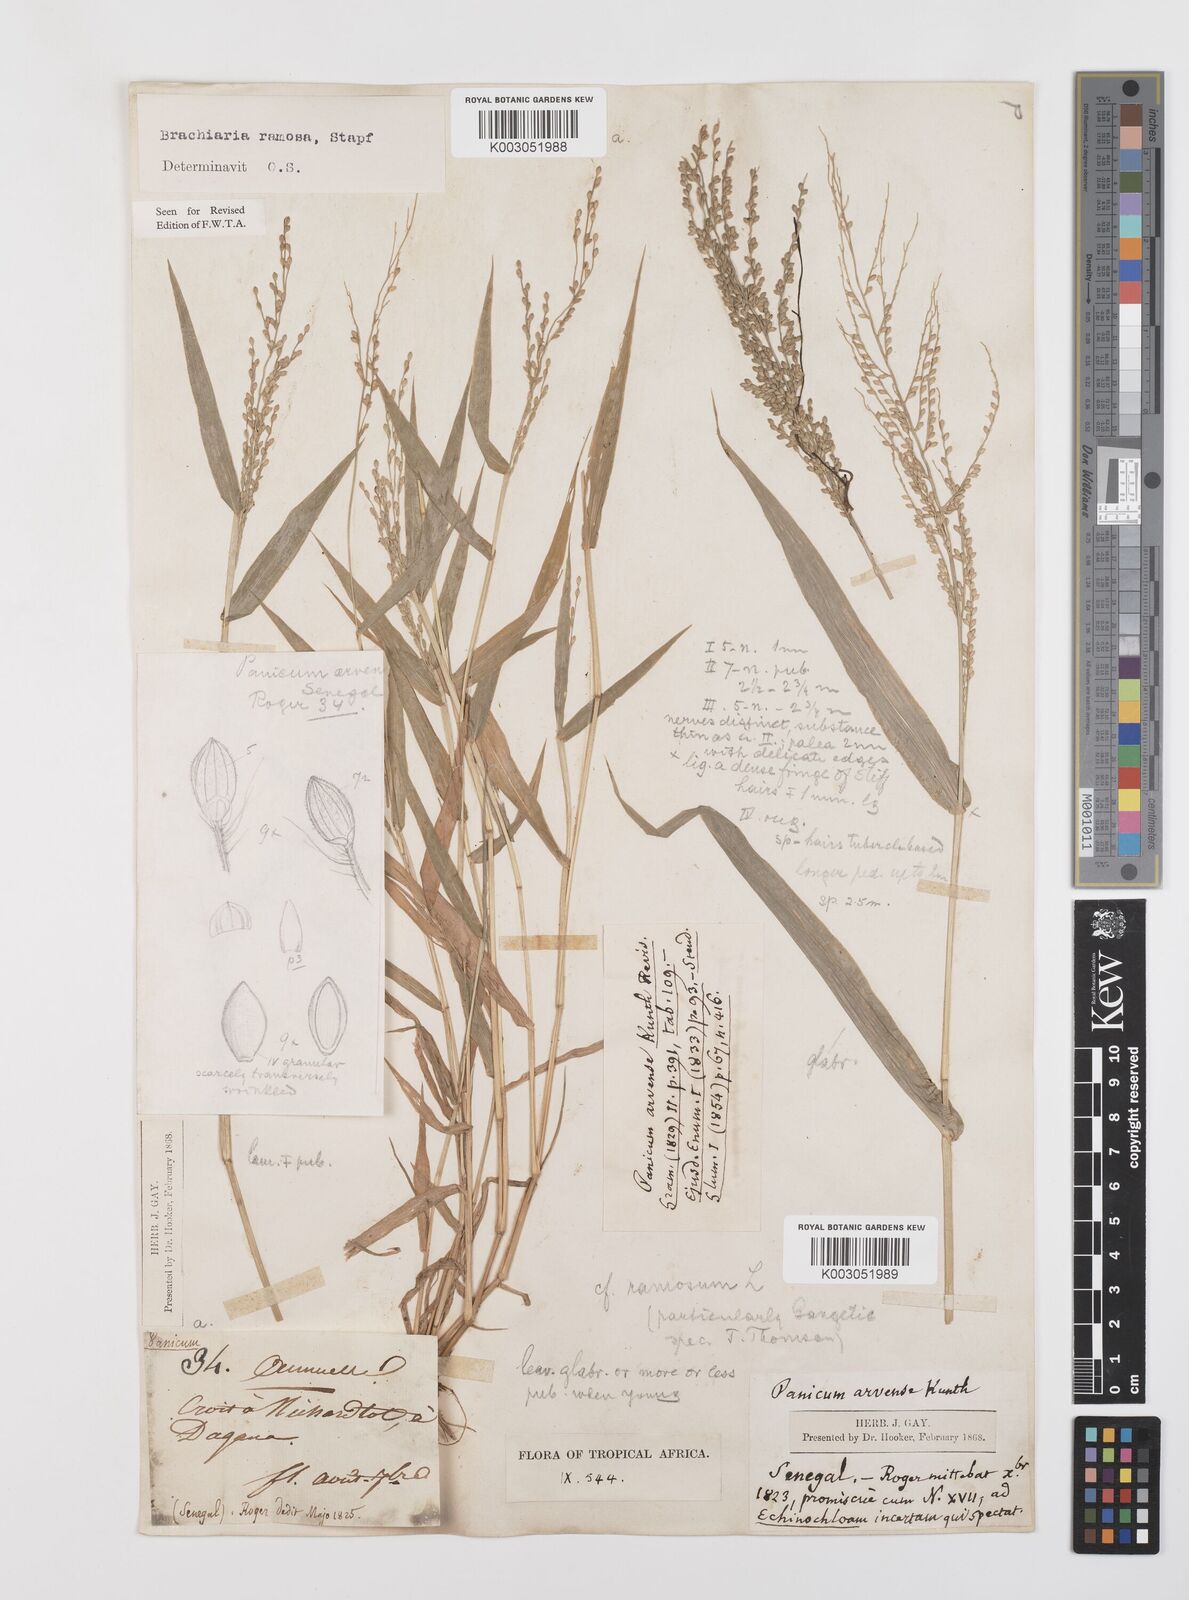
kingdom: Plantae
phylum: Tracheophyta
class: Liliopsida
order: Poales
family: Poaceae
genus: Urochloa
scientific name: Urochloa ramosa
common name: Browntop millet
